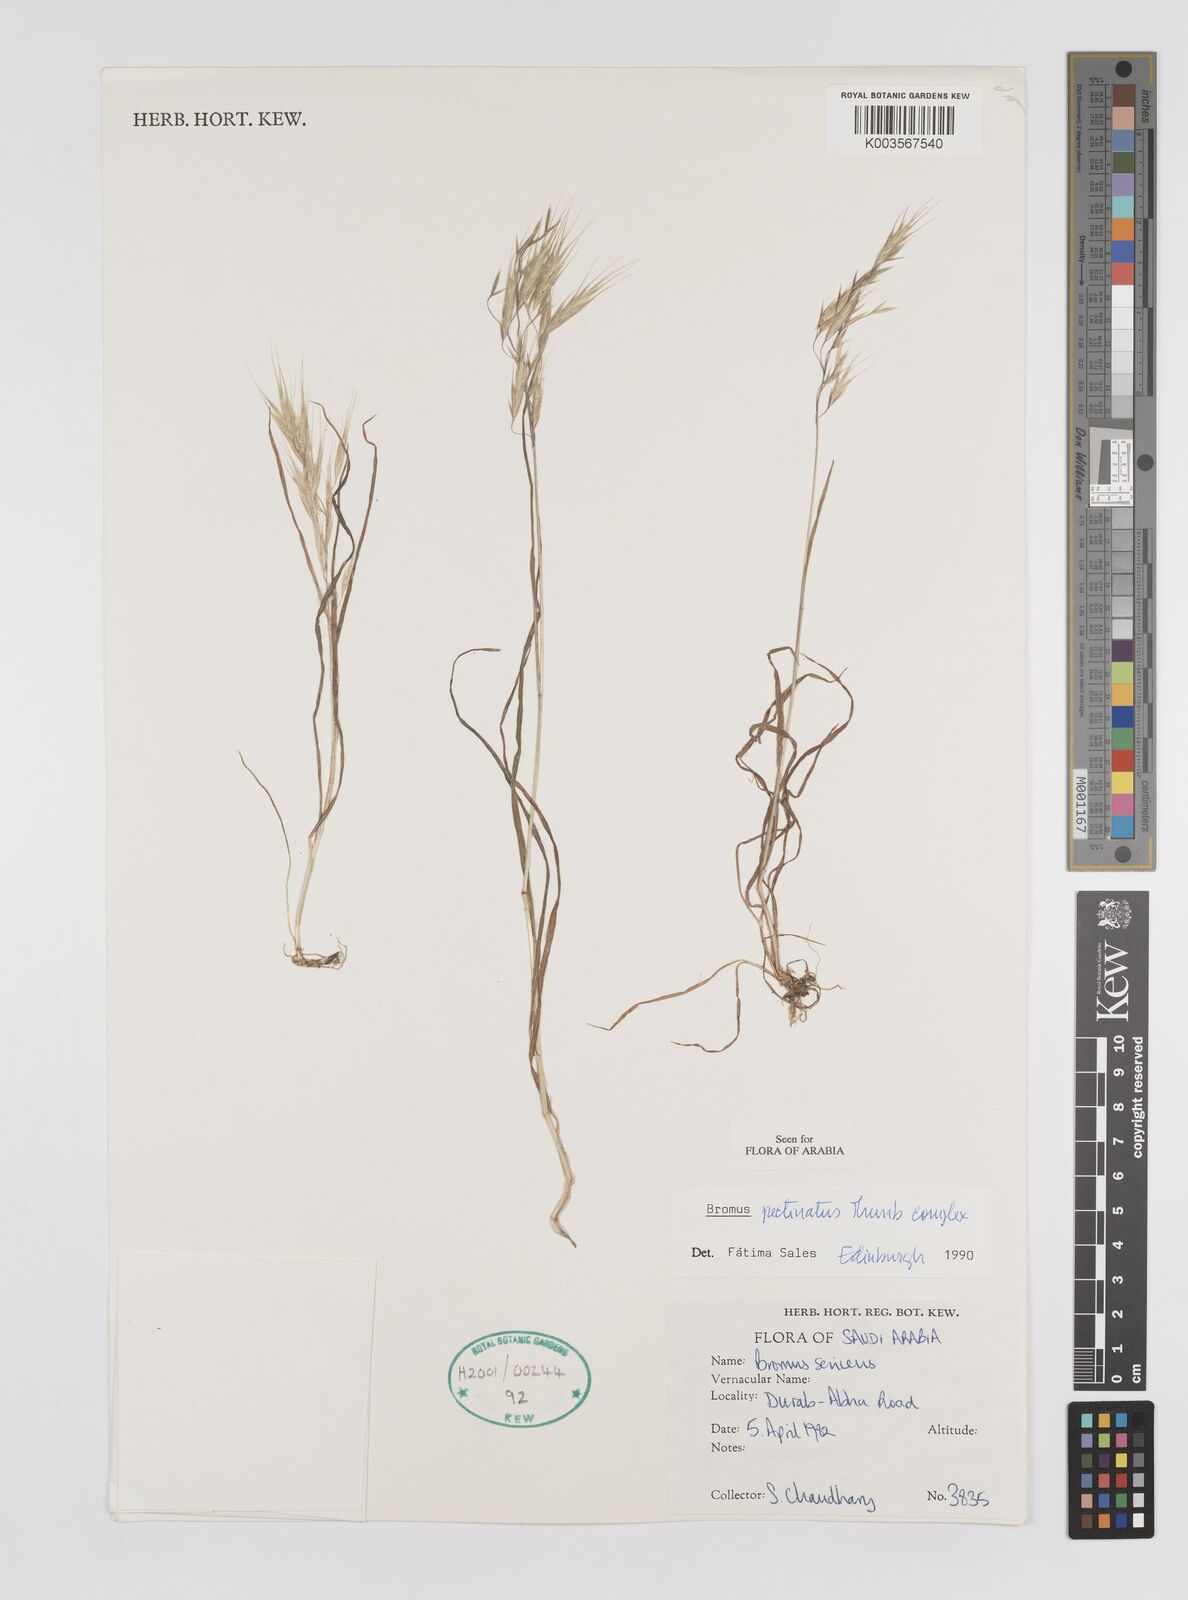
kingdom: Plantae
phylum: Tracheophyta
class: Liliopsida
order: Poales
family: Poaceae
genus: Bromus
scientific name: Bromus pectinatus
